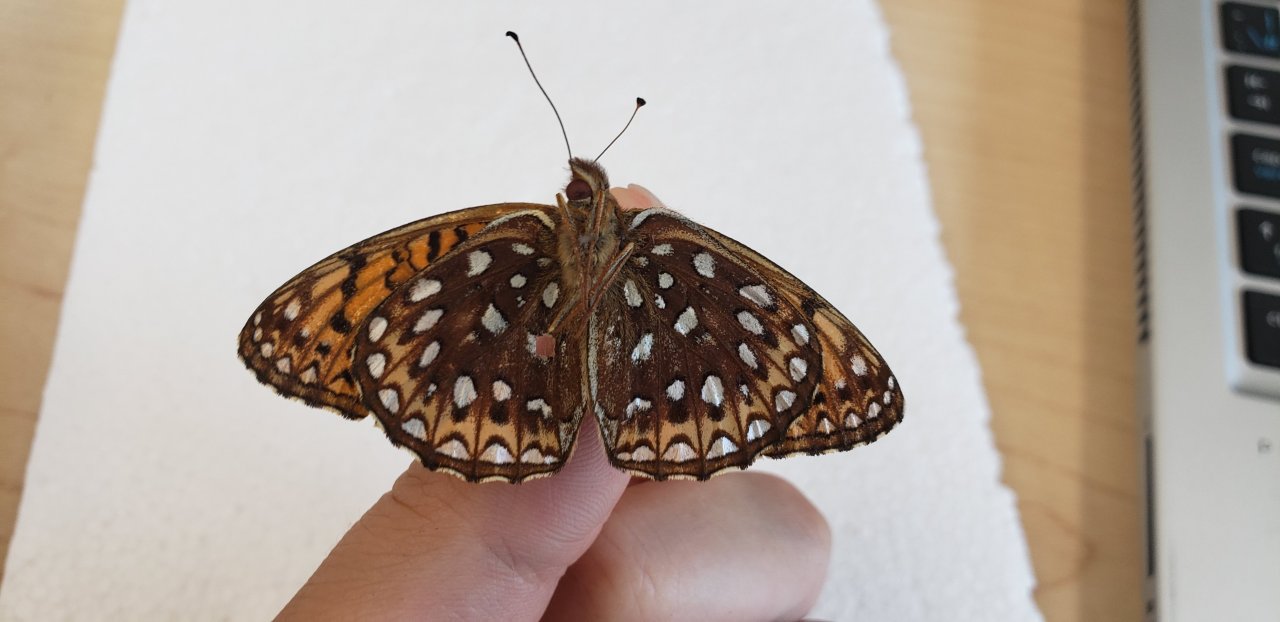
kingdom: Animalia
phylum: Arthropoda
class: Insecta
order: Lepidoptera
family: Nymphalidae
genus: Speyeria
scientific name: Speyeria atlantis
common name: Atlantis Fritillary
